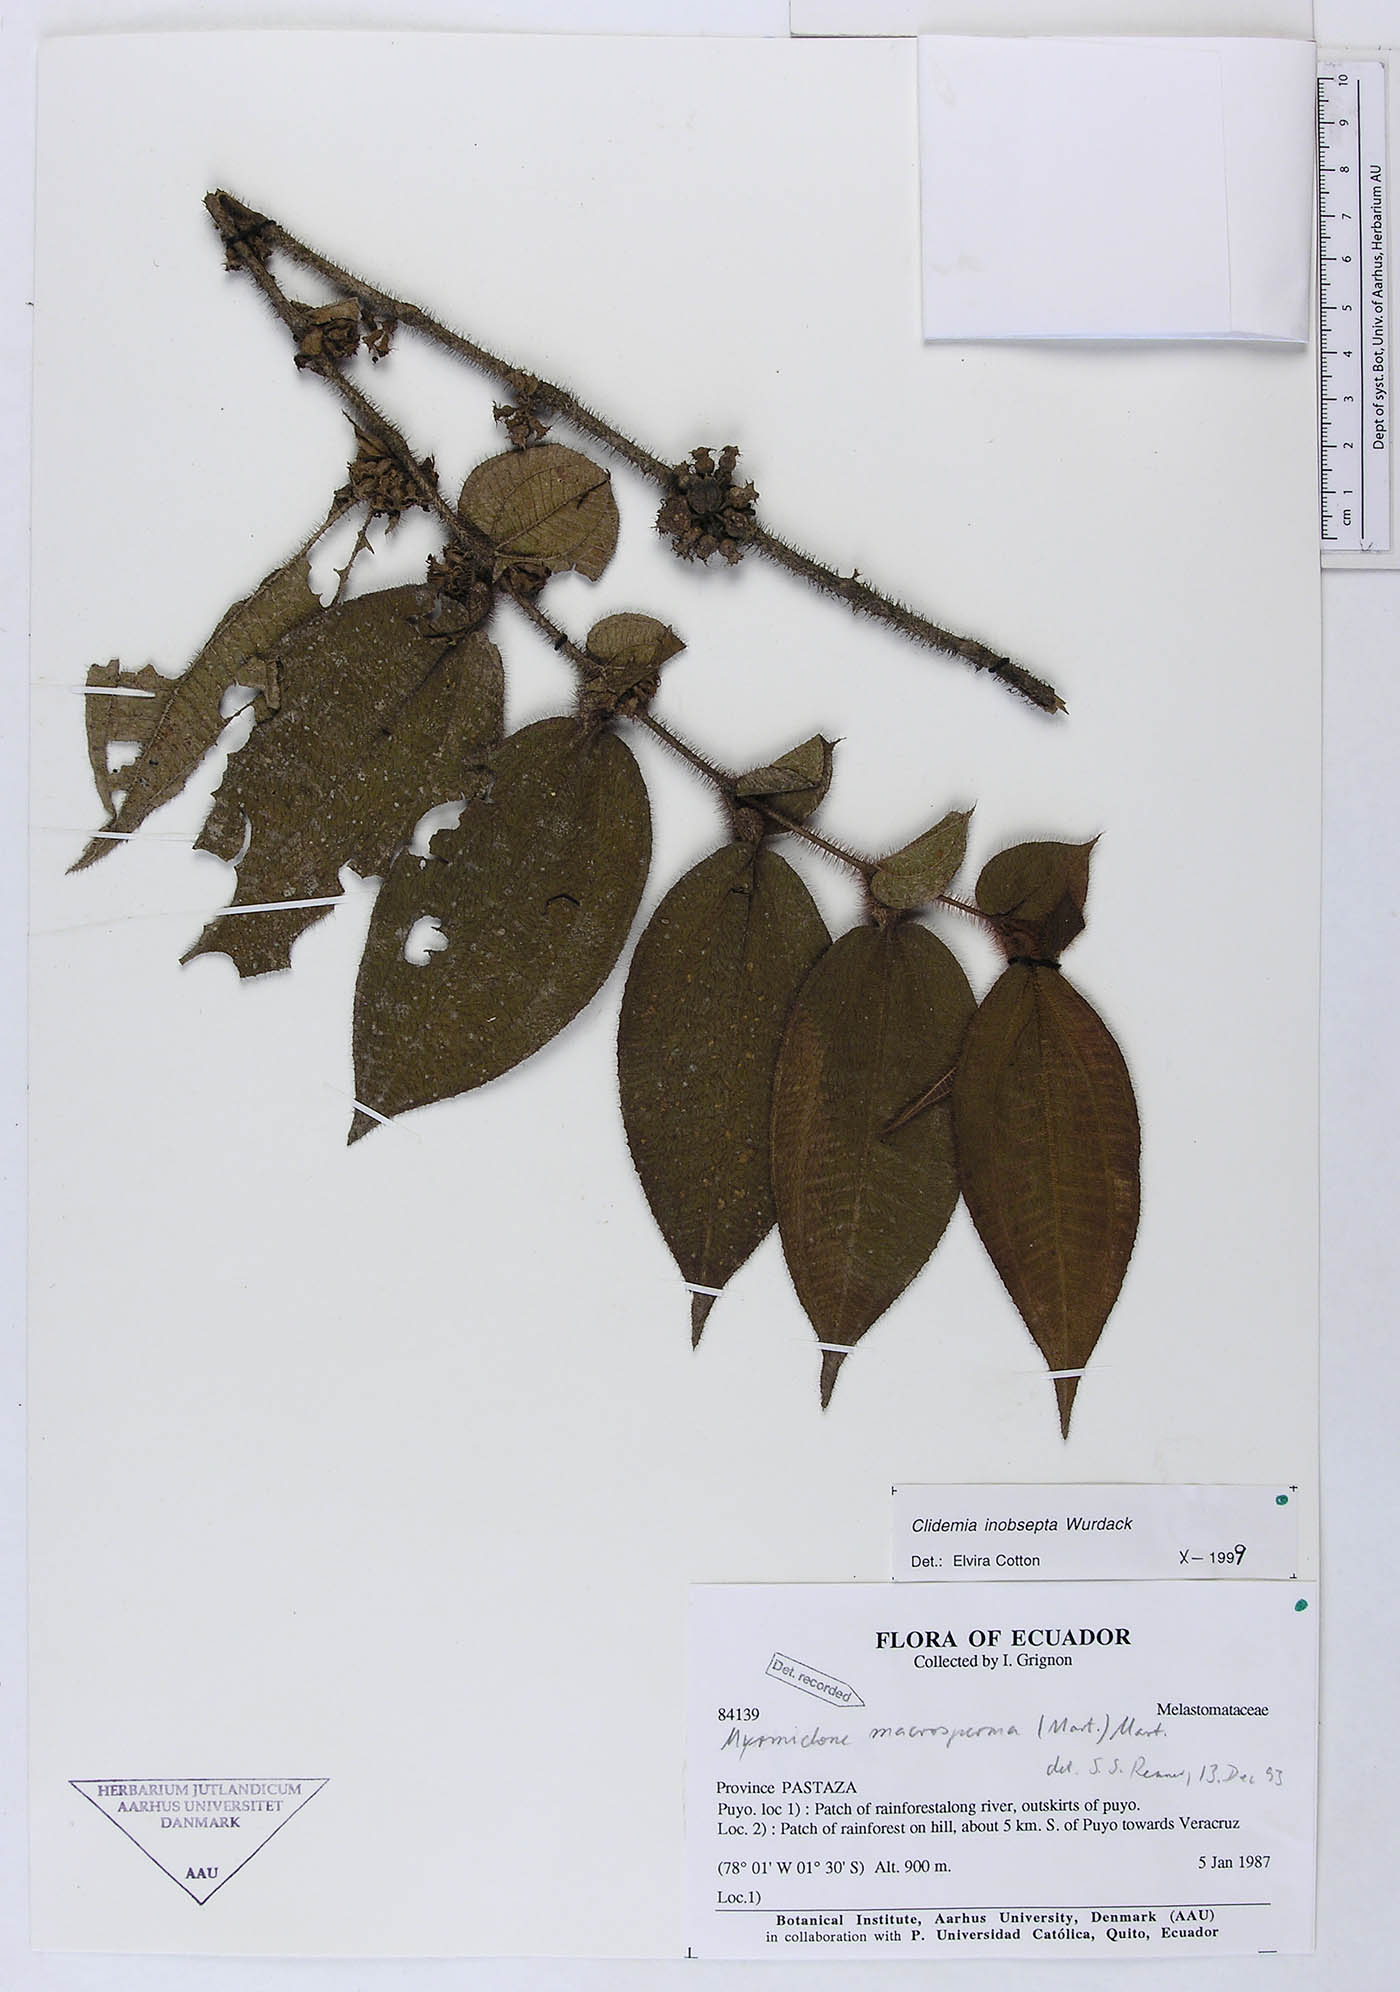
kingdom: Plantae
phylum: Tracheophyta
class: Magnoliopsida
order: Myrtales
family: Melastomataceae
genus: Miconia
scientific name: Miconia inobsepta
